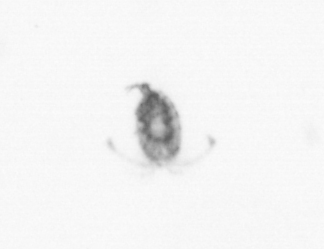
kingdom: Animalia
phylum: Arthropoda
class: Copepoda
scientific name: Copepoda
